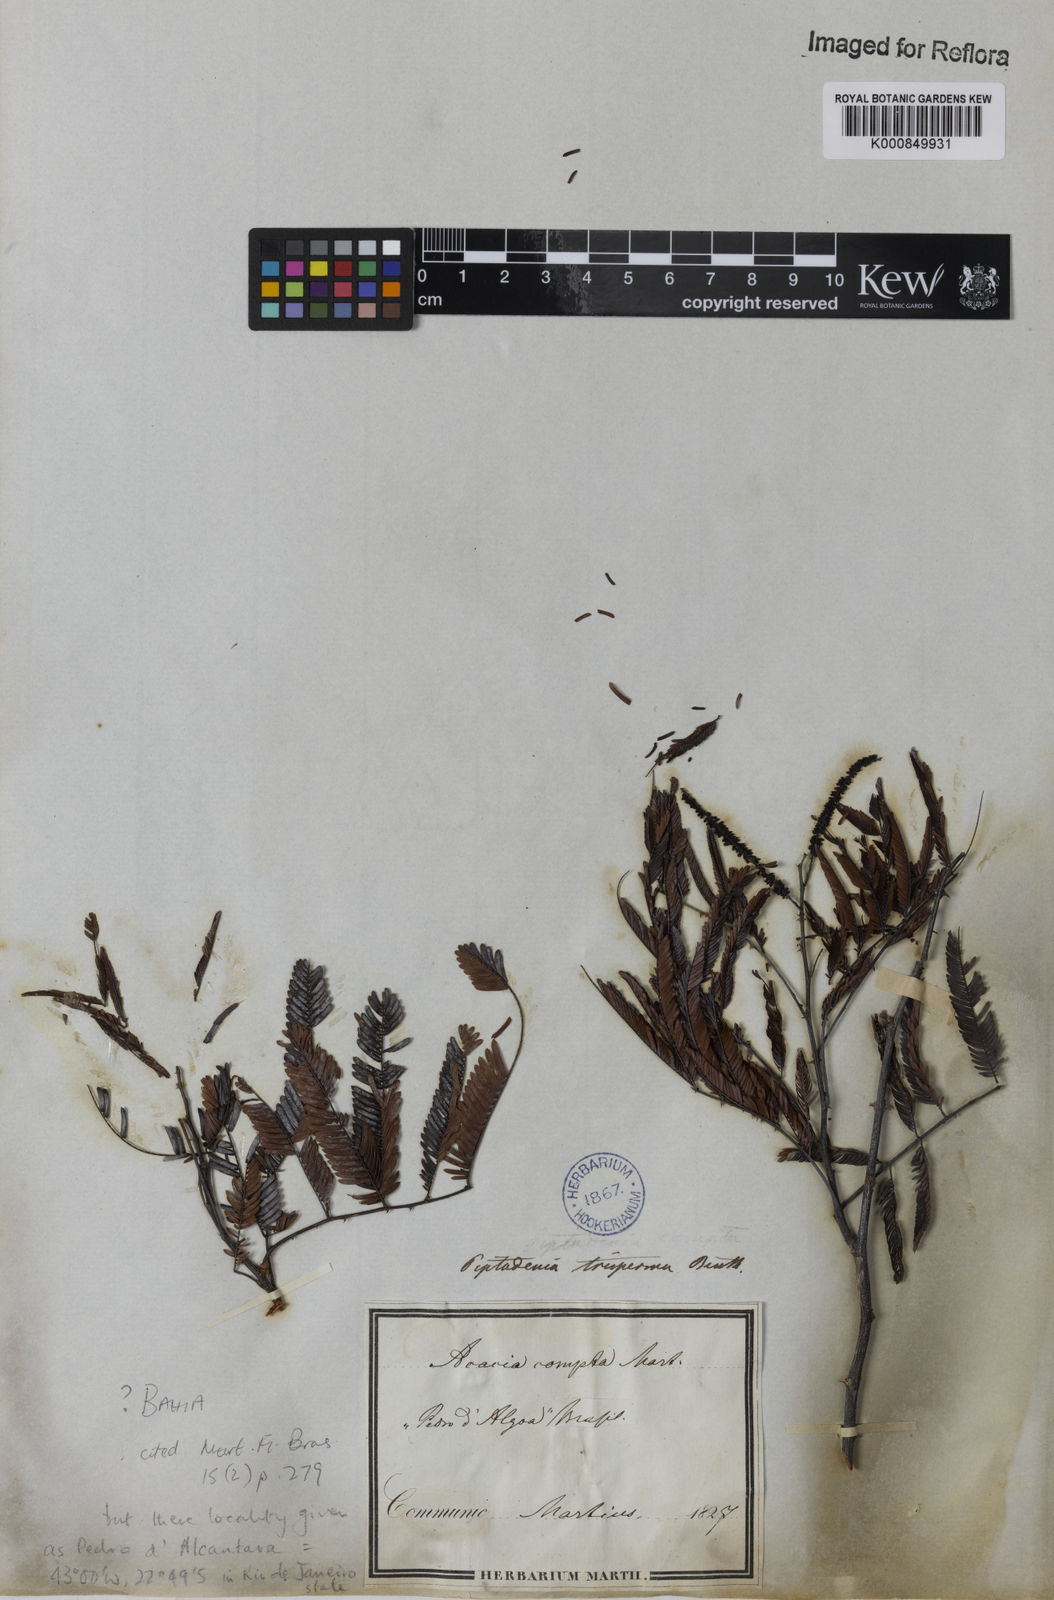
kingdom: Plantae
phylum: Tracheophyta
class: Magnoliopsida
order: Fabales
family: Fabaceae
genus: Piptadenia
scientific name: Piptadenia trisperma
